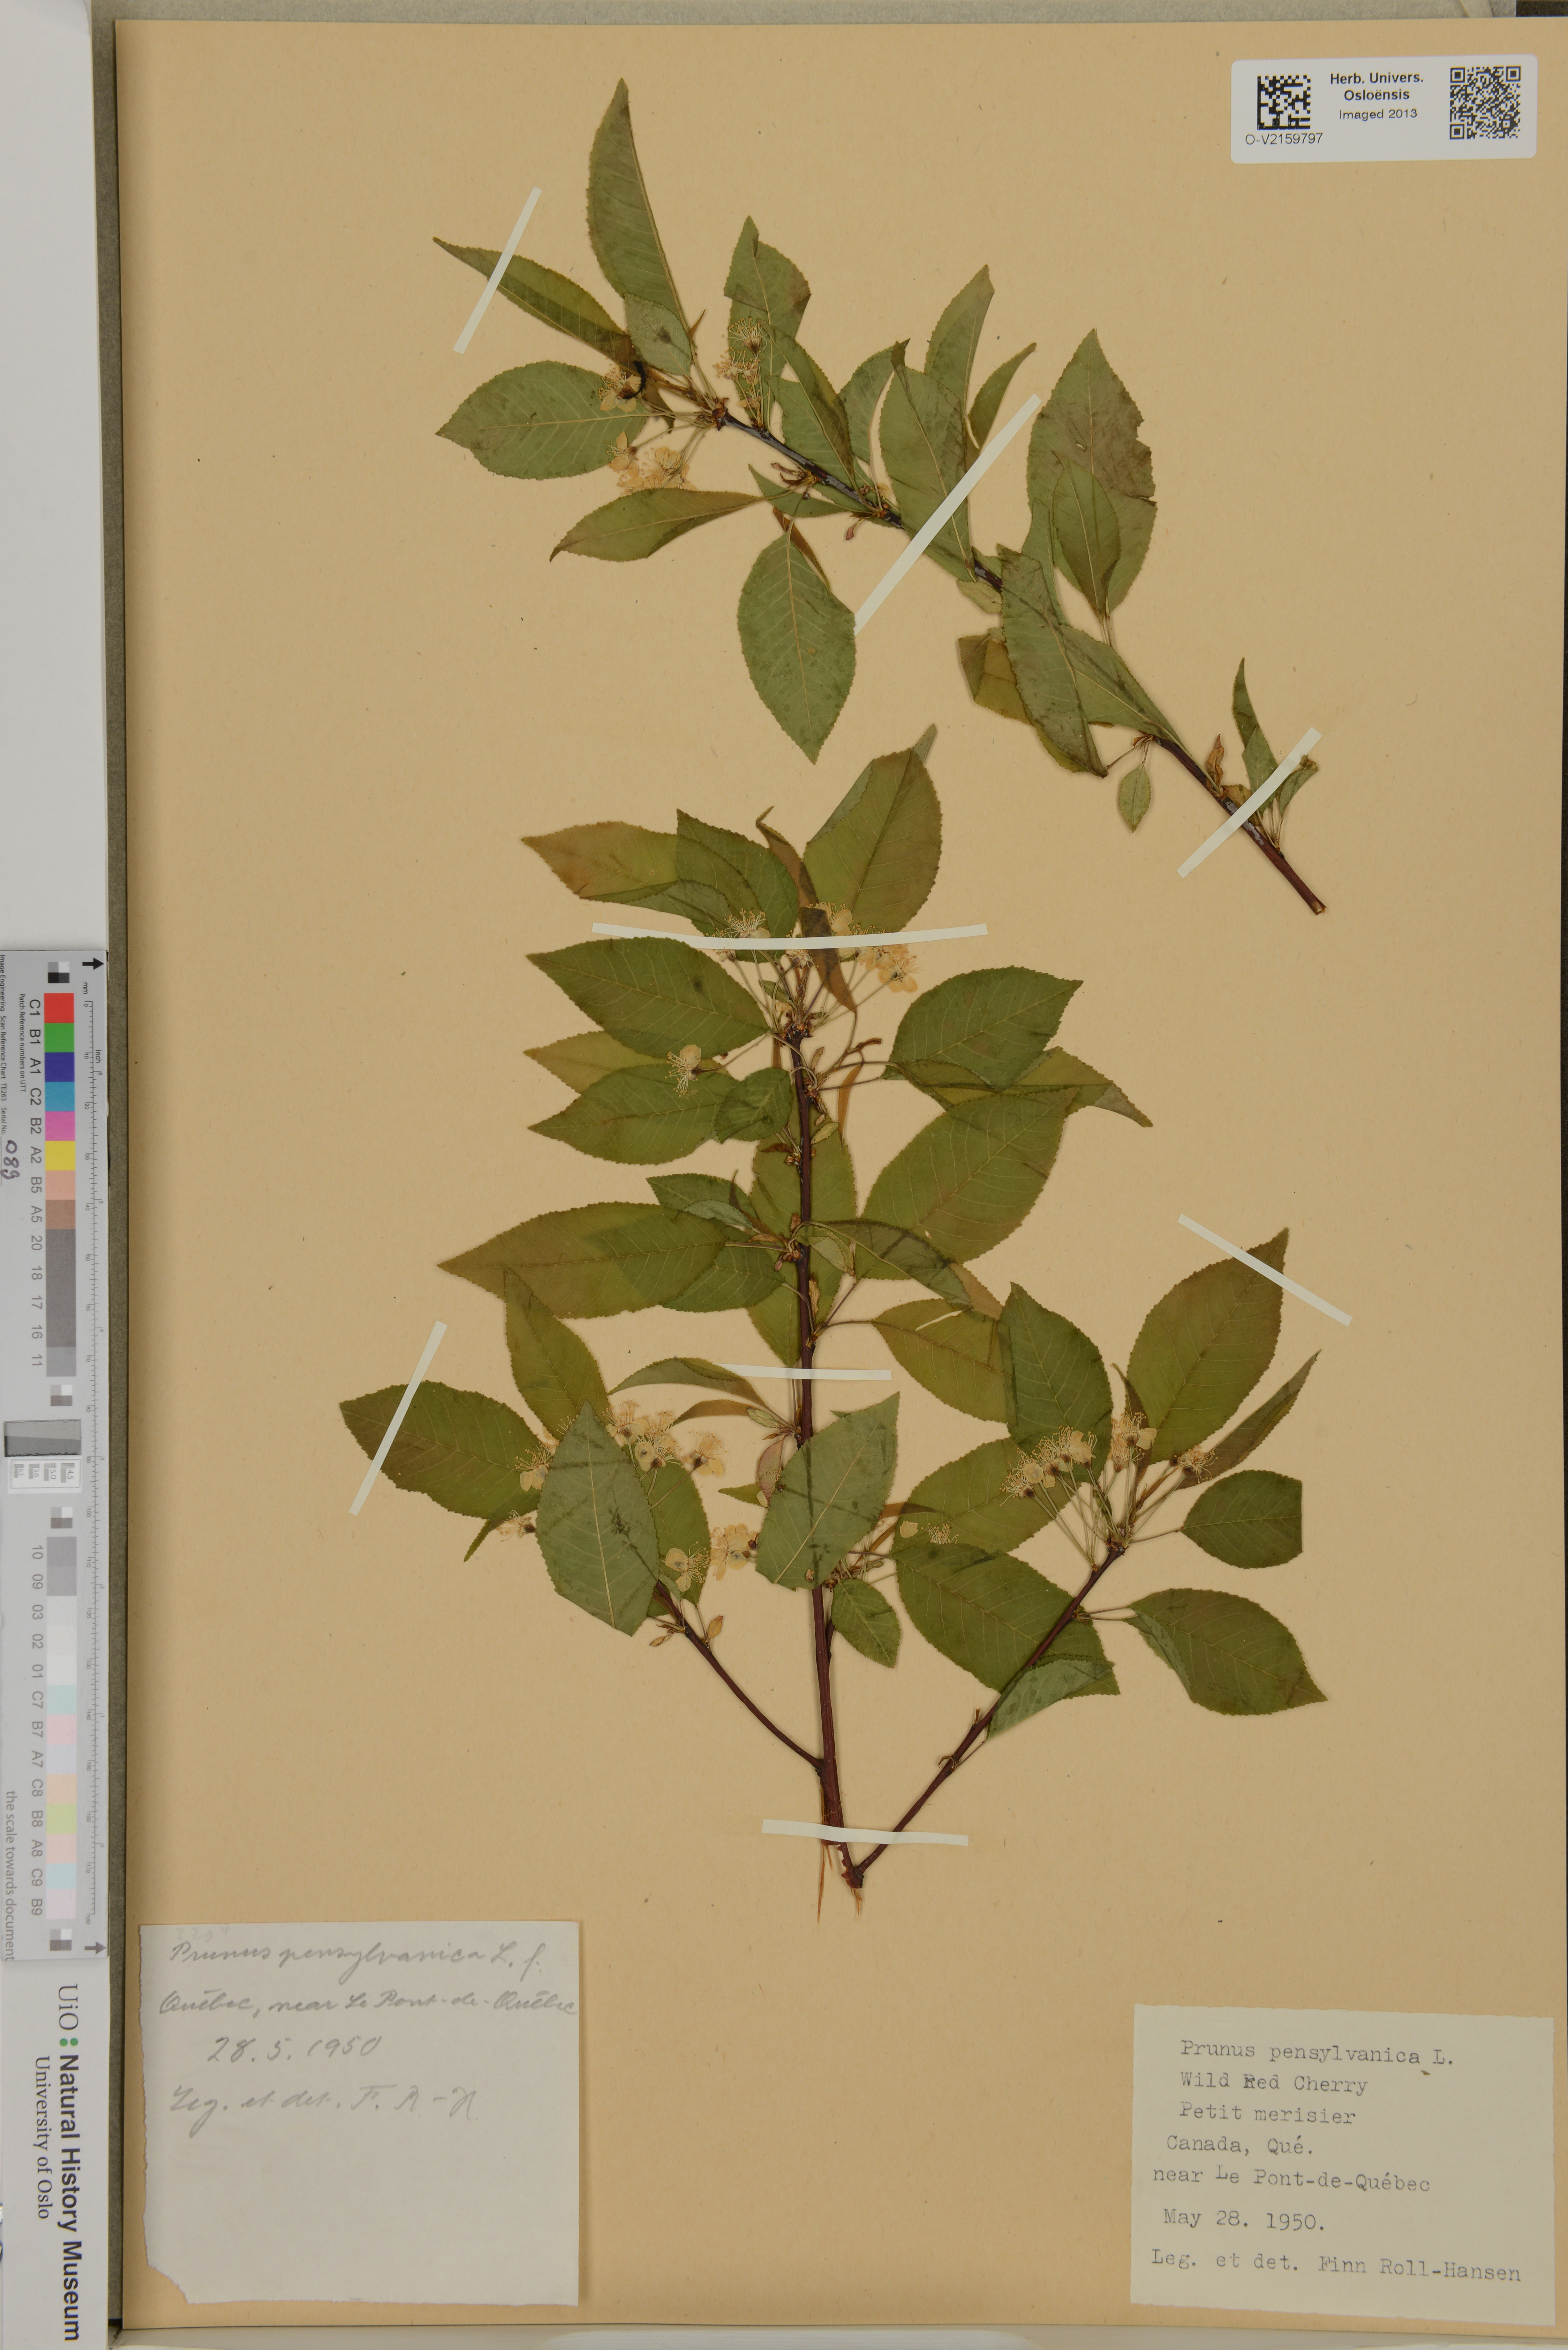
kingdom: Plantae
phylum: Tracheophyta
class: Magnoliopsida
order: Rosales
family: Rosaceae
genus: Prunus
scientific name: Prunus pensylvanica
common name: Pin cherry
